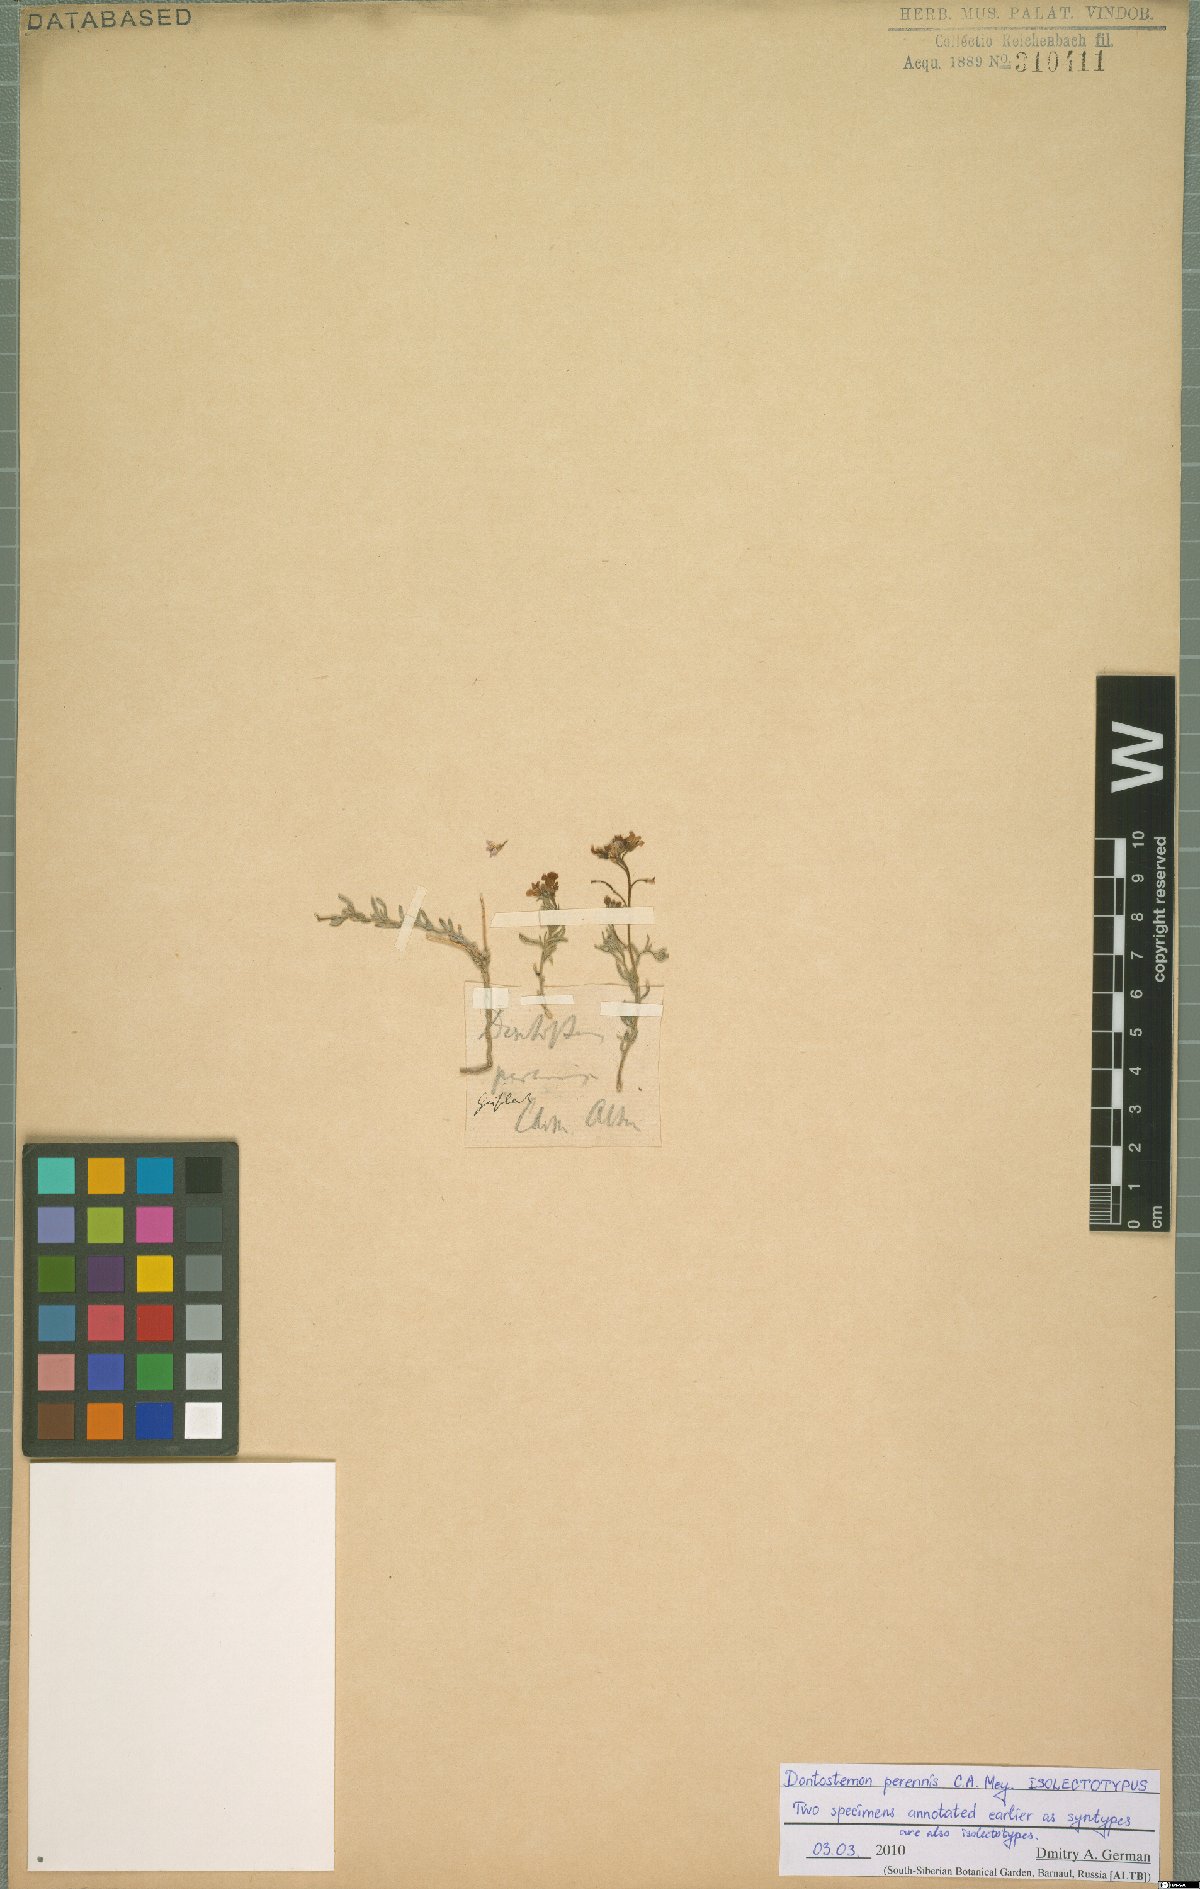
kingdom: Plantae
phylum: Tracheophyta
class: Magnoliopsida
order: Brassicales
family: Brassicaceae
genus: Dontostemon
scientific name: Dontostemon perennis
